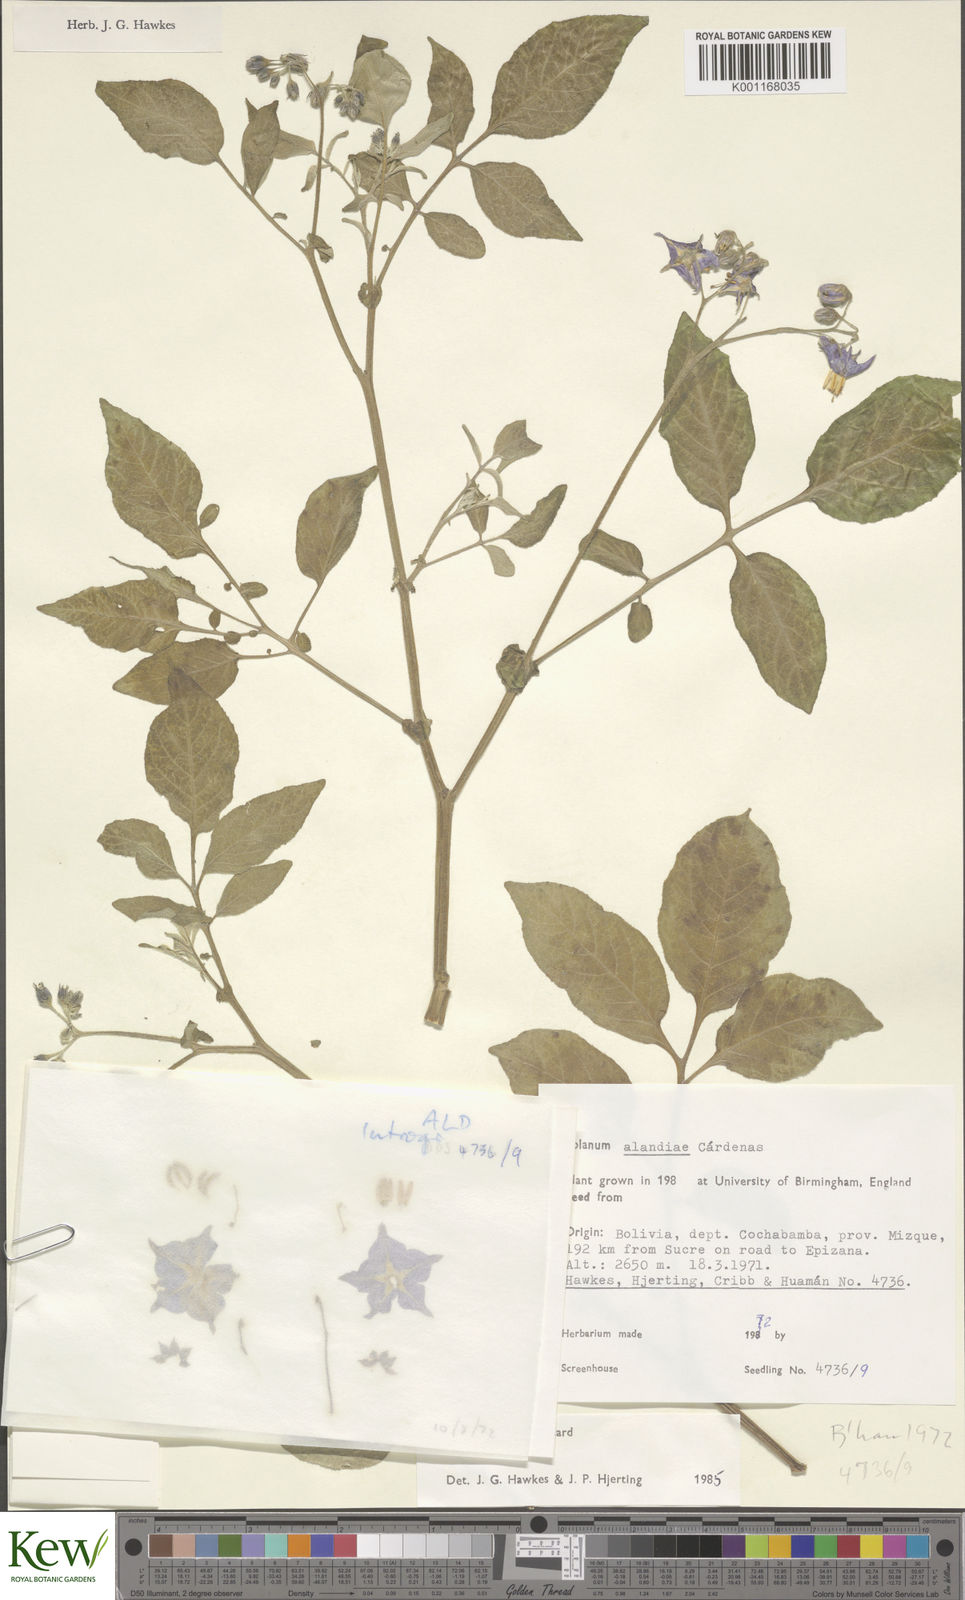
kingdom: Plantae
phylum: Tracheophyta
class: Magnoliopsida
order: Solanales
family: Solanaceae
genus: Solanum
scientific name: Solanum
